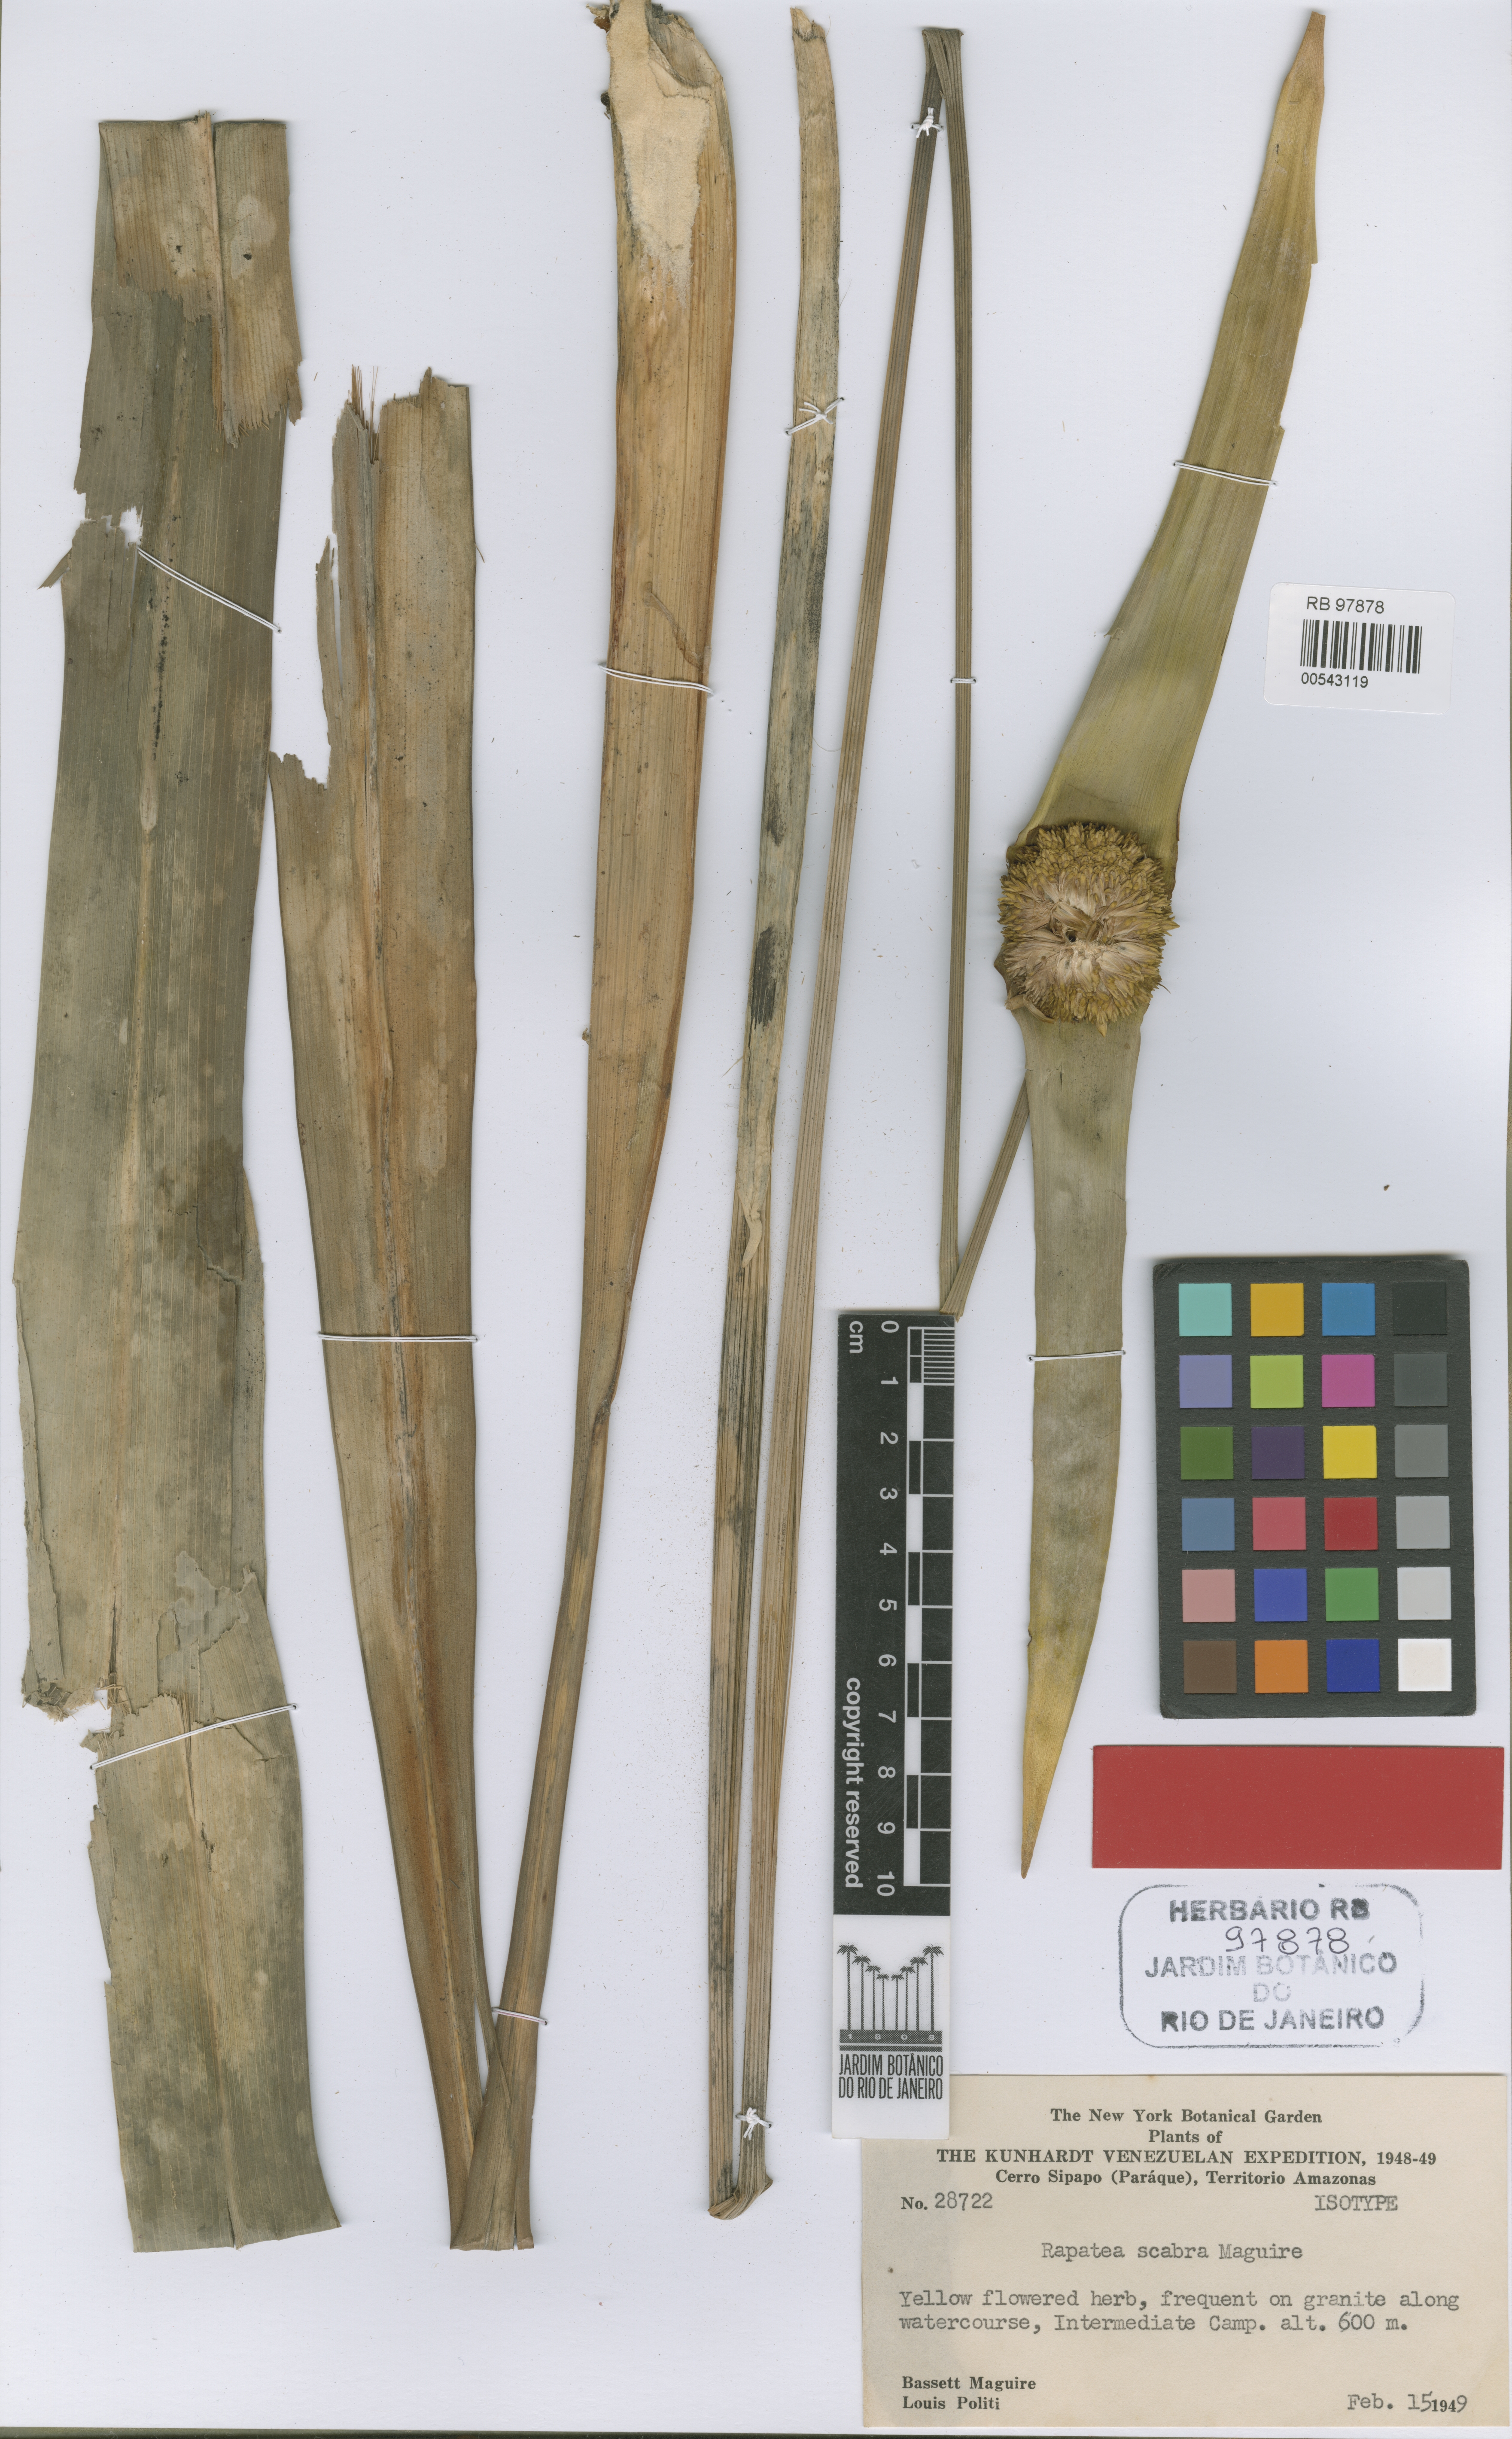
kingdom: Plantae
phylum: Tracheophyta
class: Liliopsida
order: Poales
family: Rapateaceae
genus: Rapatea
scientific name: Rapatea scabra
